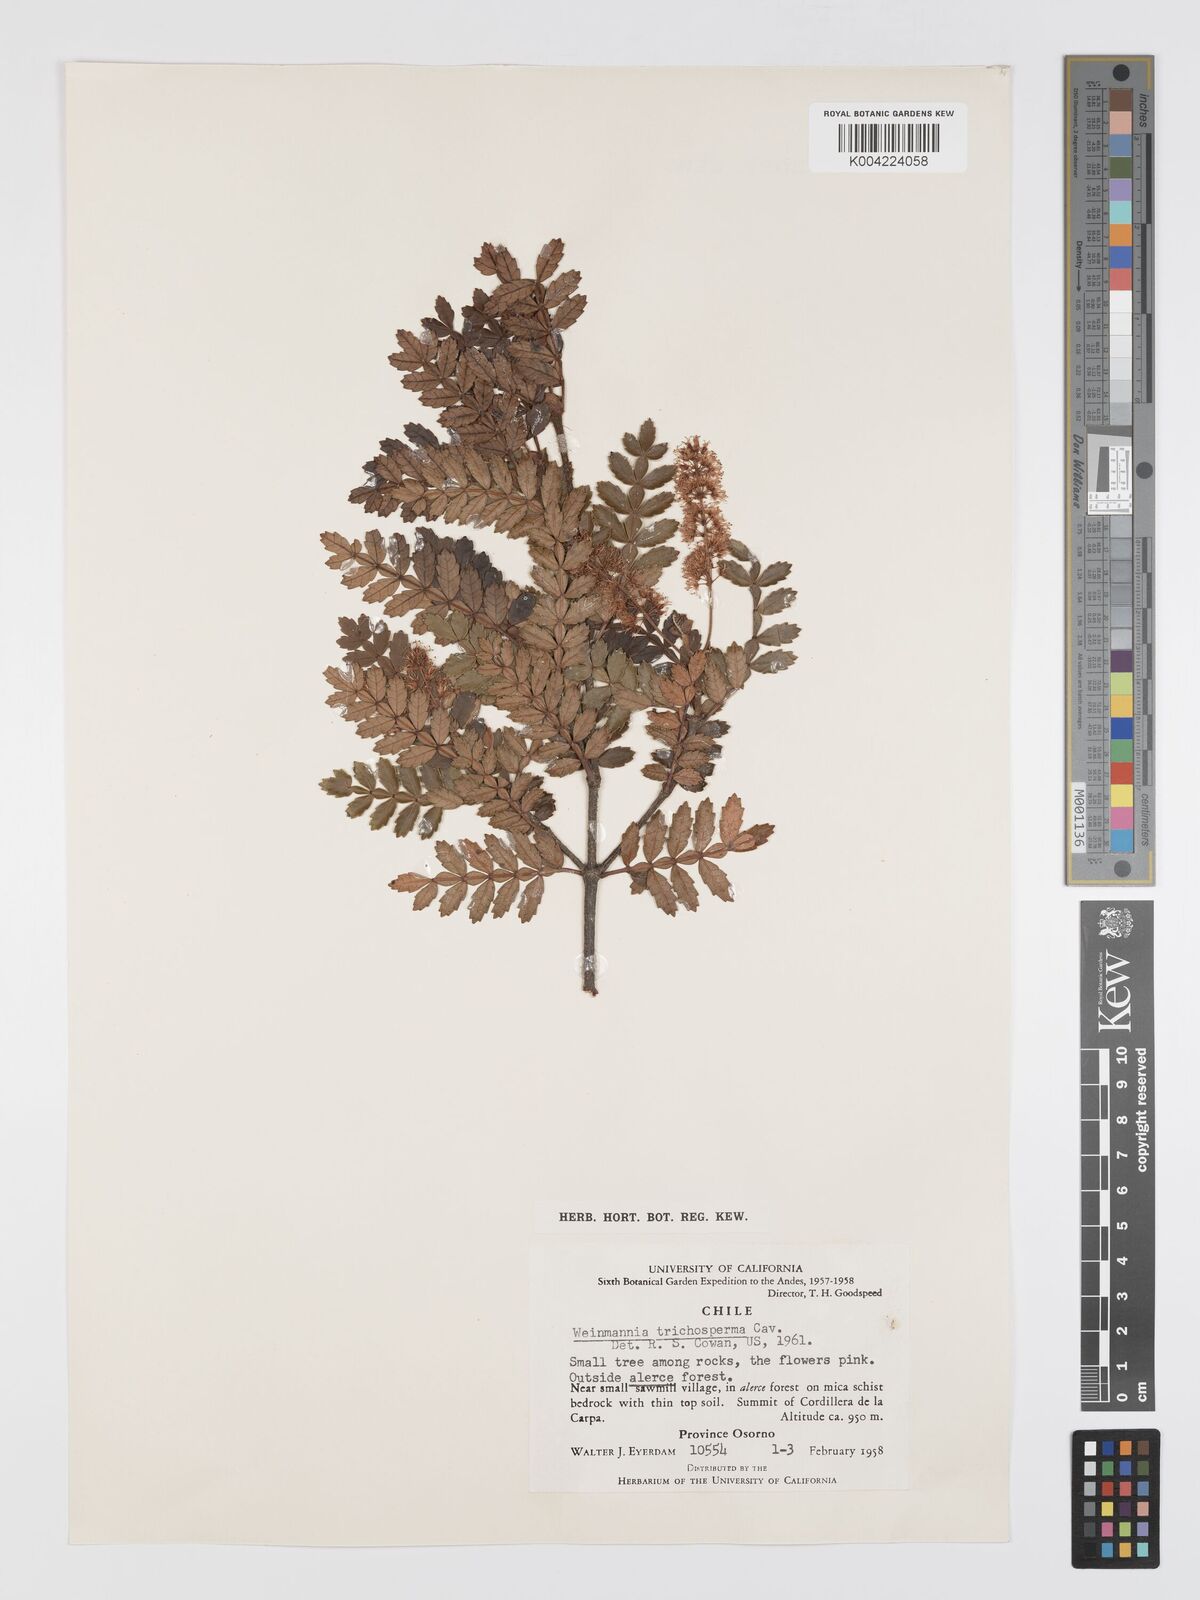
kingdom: Plantae
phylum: Tracheophyta
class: Magnoliopsida
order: Oxalidales
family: Cunoniaceae
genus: Weinmannia
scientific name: Weinmannia trichosperma
